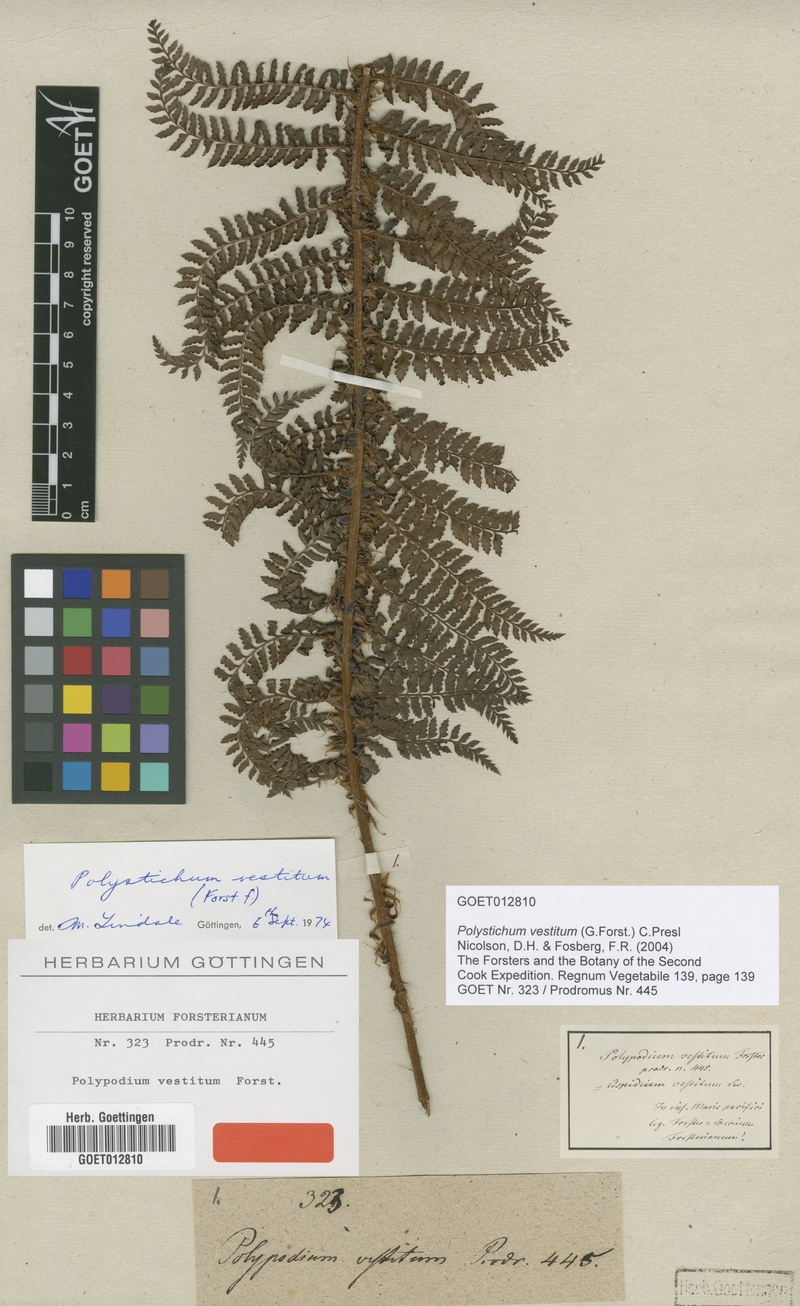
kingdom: Plantae
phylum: Tracheophyta
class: Polypodiopsida
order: Polypodiales
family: Dryopteridaceae
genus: Polystichum
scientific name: Polystichum vestitum
